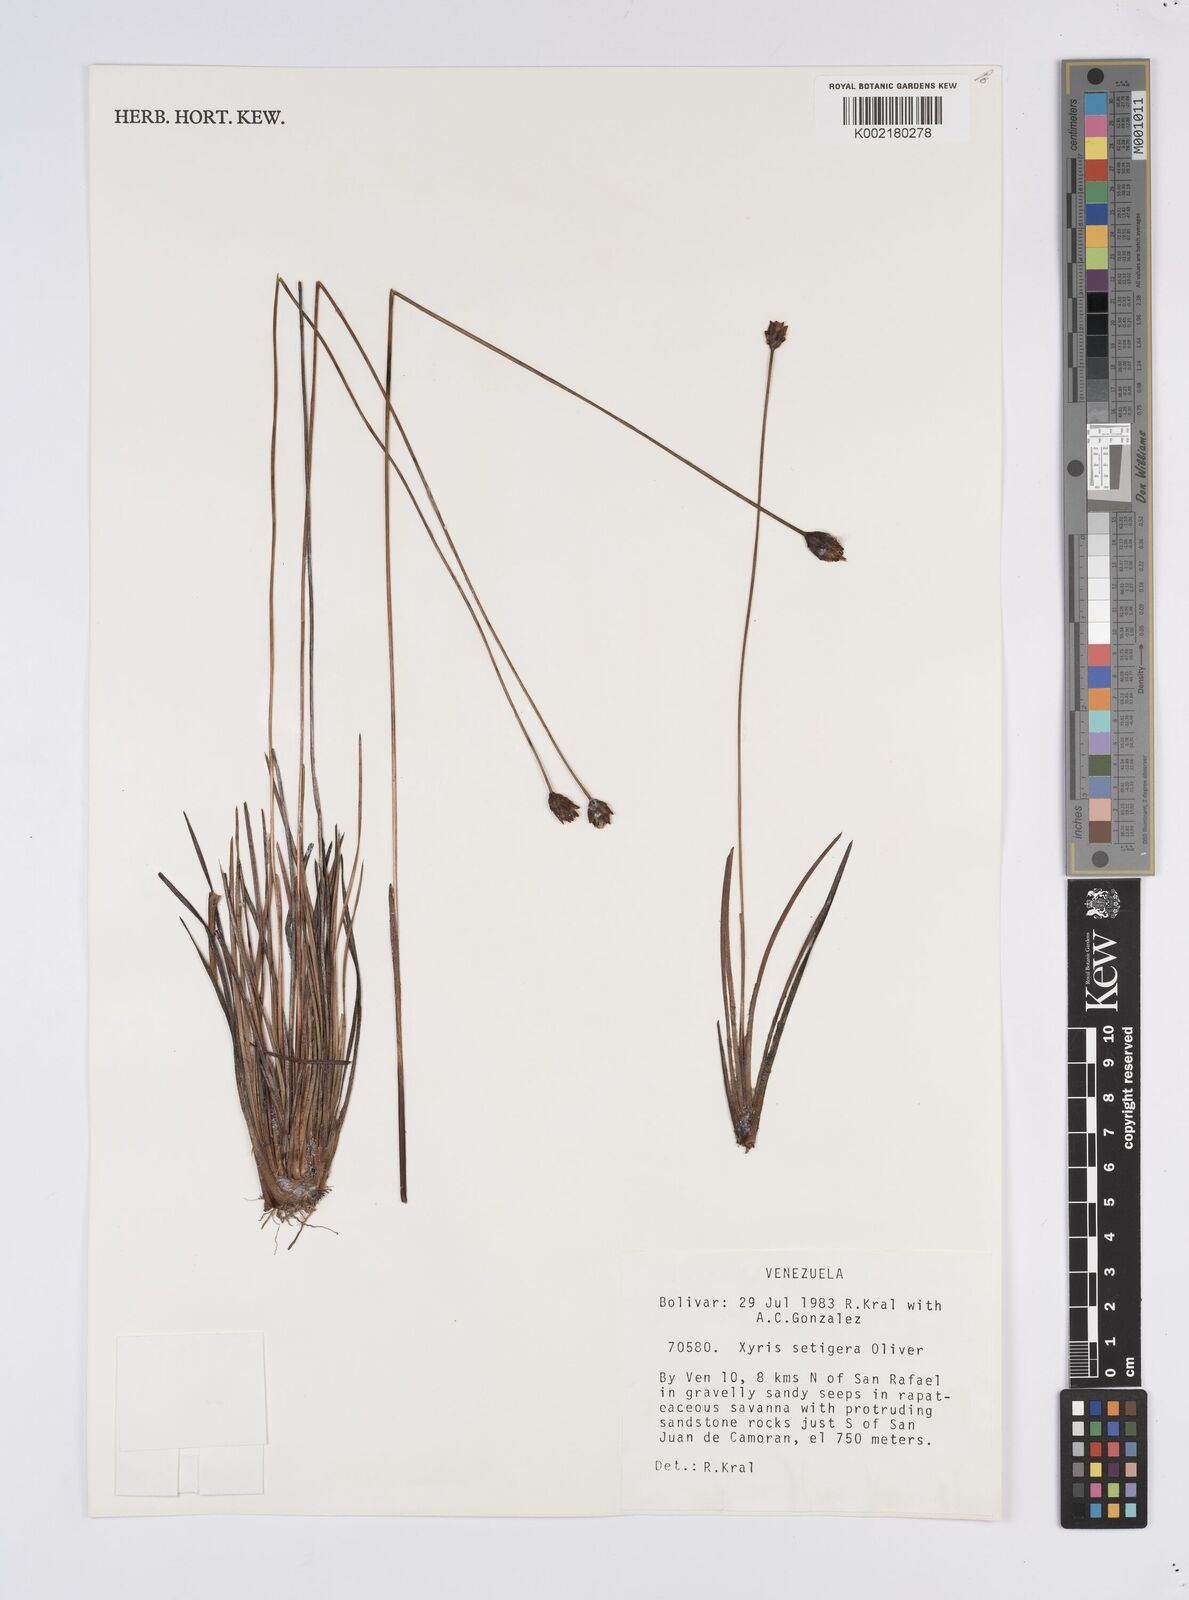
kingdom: Plantae
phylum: Tracheophyta
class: Liliopsida
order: Poales
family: Xyridaceae
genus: Xyris
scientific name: Xyris setigera
